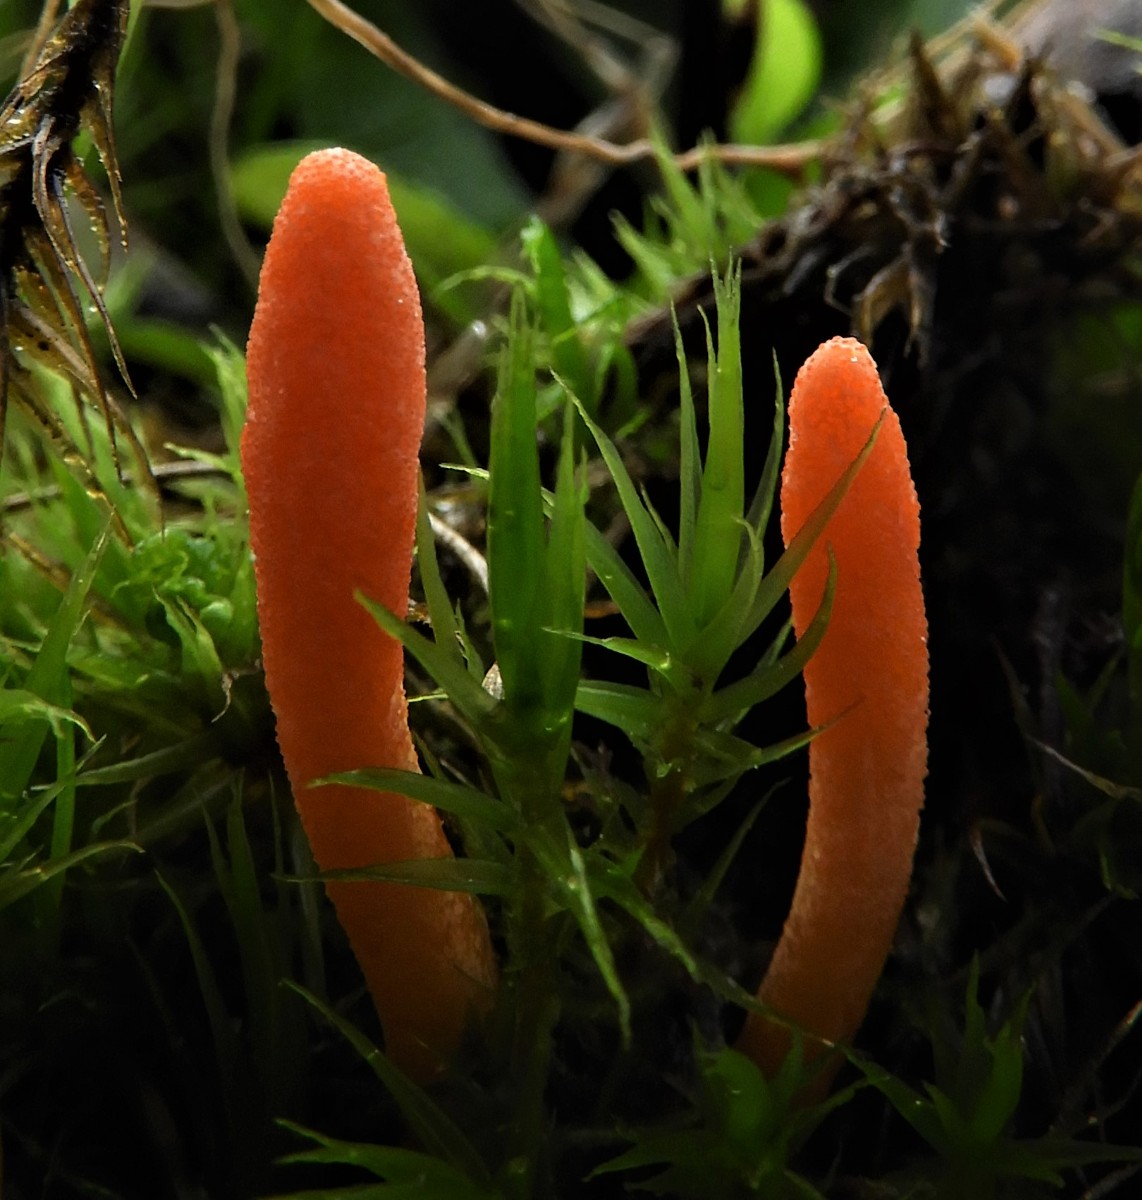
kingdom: Fungi
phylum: Ascomycota
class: Sordariomycetes
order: Hypocreales
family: Cordycipitaceae
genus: Cordyceps
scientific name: Cordyceps militaris
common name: puppe-snyltekølle
